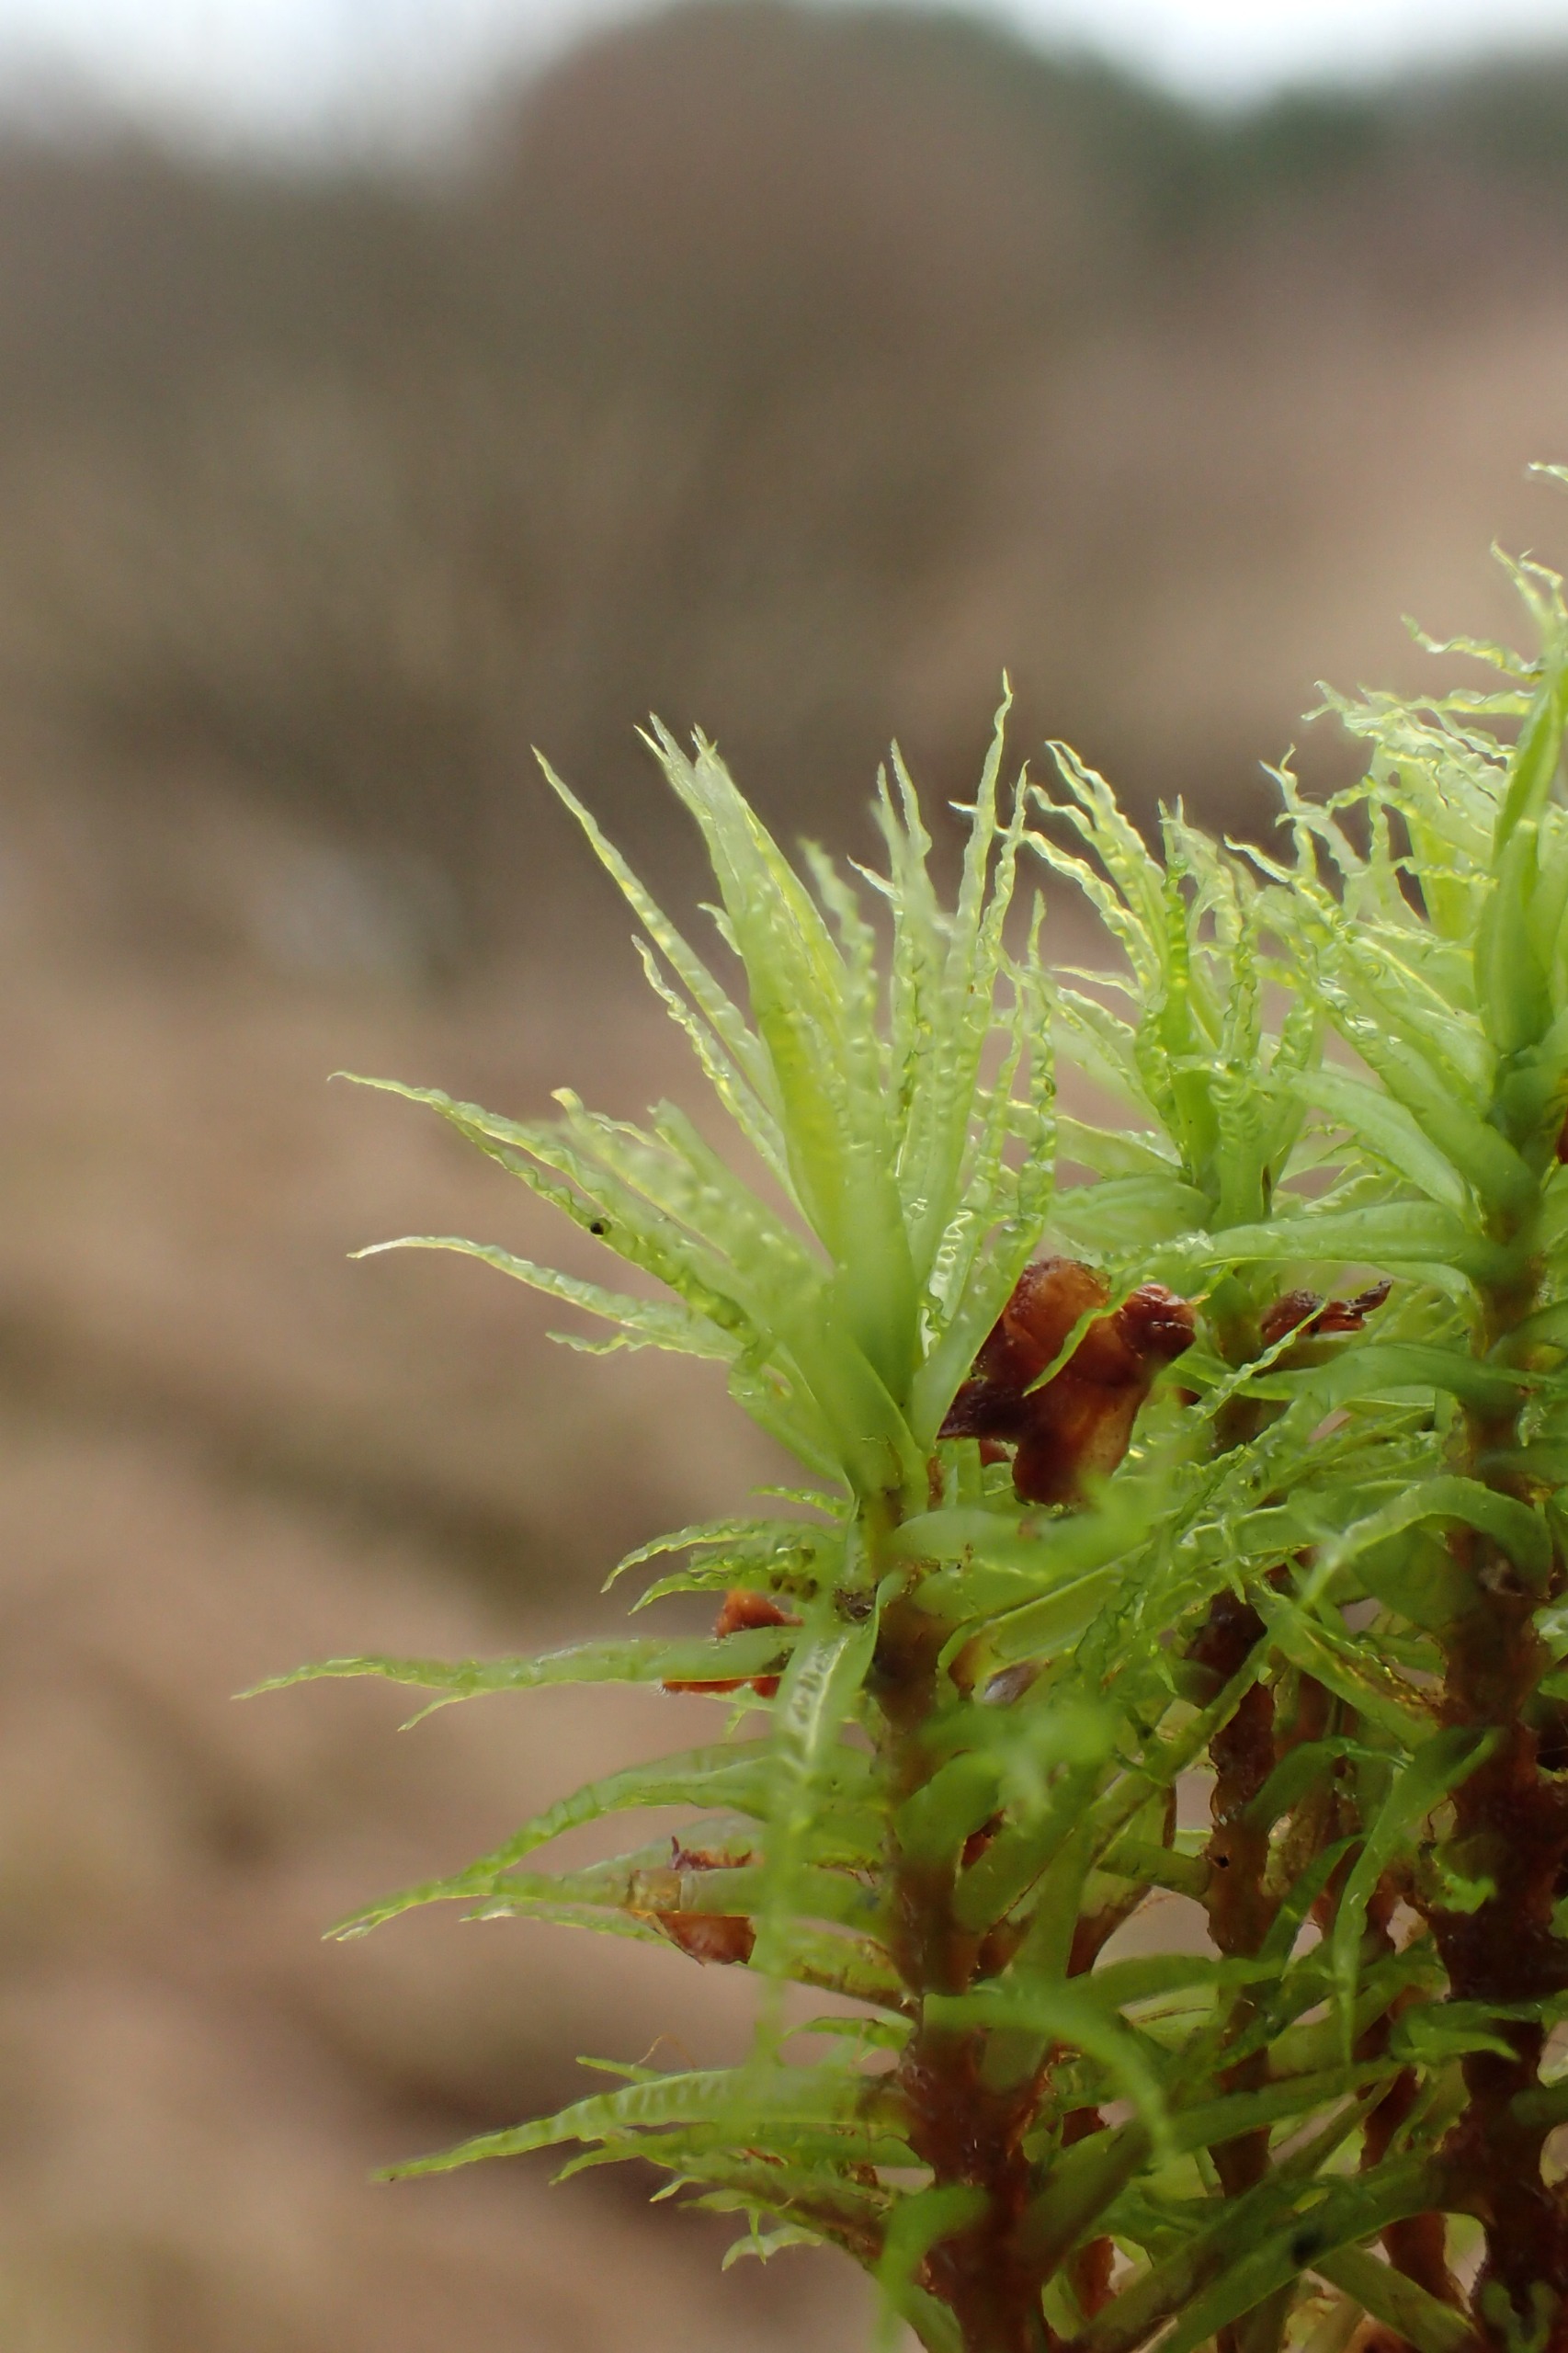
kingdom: Plantae
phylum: Bryophyta
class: Bryopsida
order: Dicranales
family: Dicranaceae
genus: Dicranum
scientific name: Dicranum bonjeanii
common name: Kær-kløvtand
